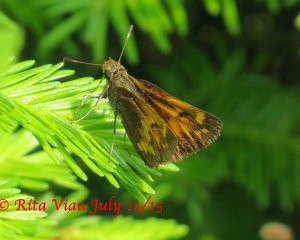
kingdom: Animalia
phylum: Arthropoda
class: Insecta
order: Lepidoptera
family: Hesperiidae
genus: Lon
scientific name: Lon hobomok
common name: Hobomok Skipper
